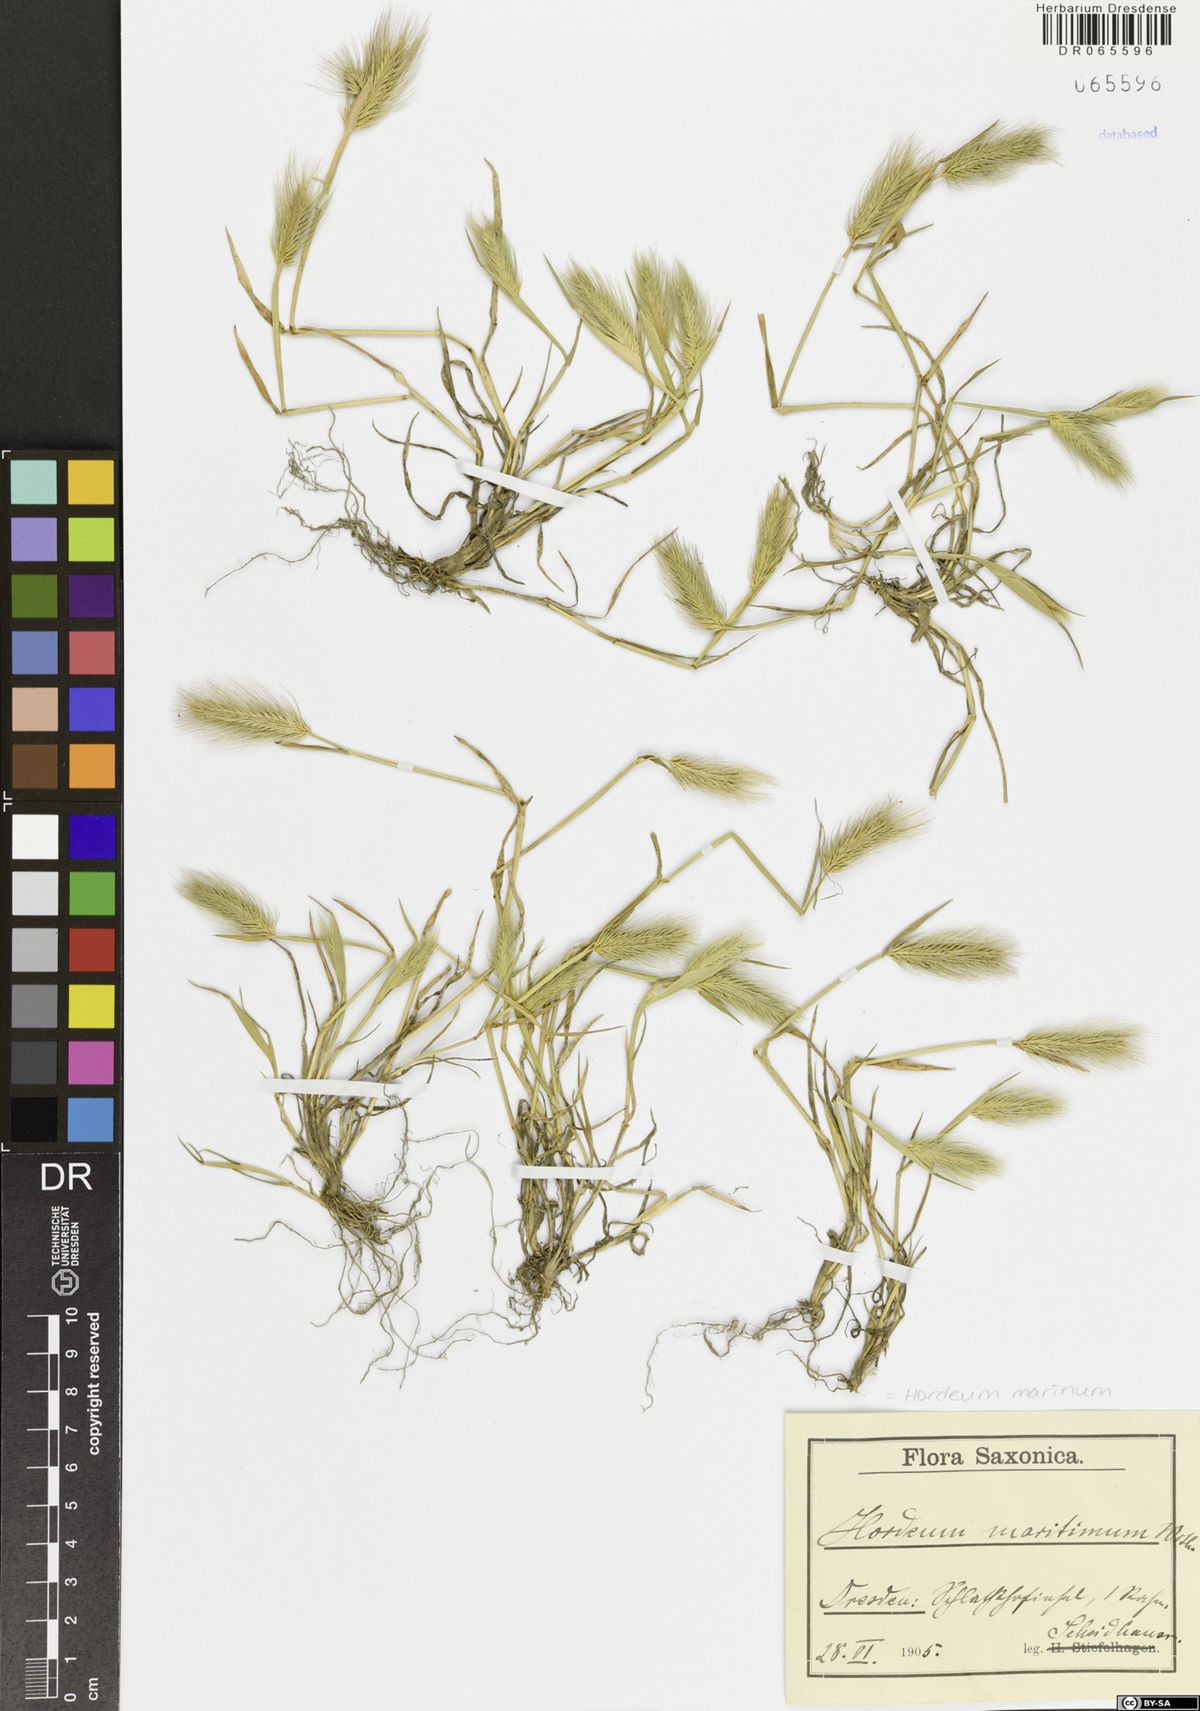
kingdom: Plantae
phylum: Tracheophyta
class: Liliopsida
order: Poales
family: Poaceae
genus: Hordeum
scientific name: Hordeum marinum
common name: Sea barley
